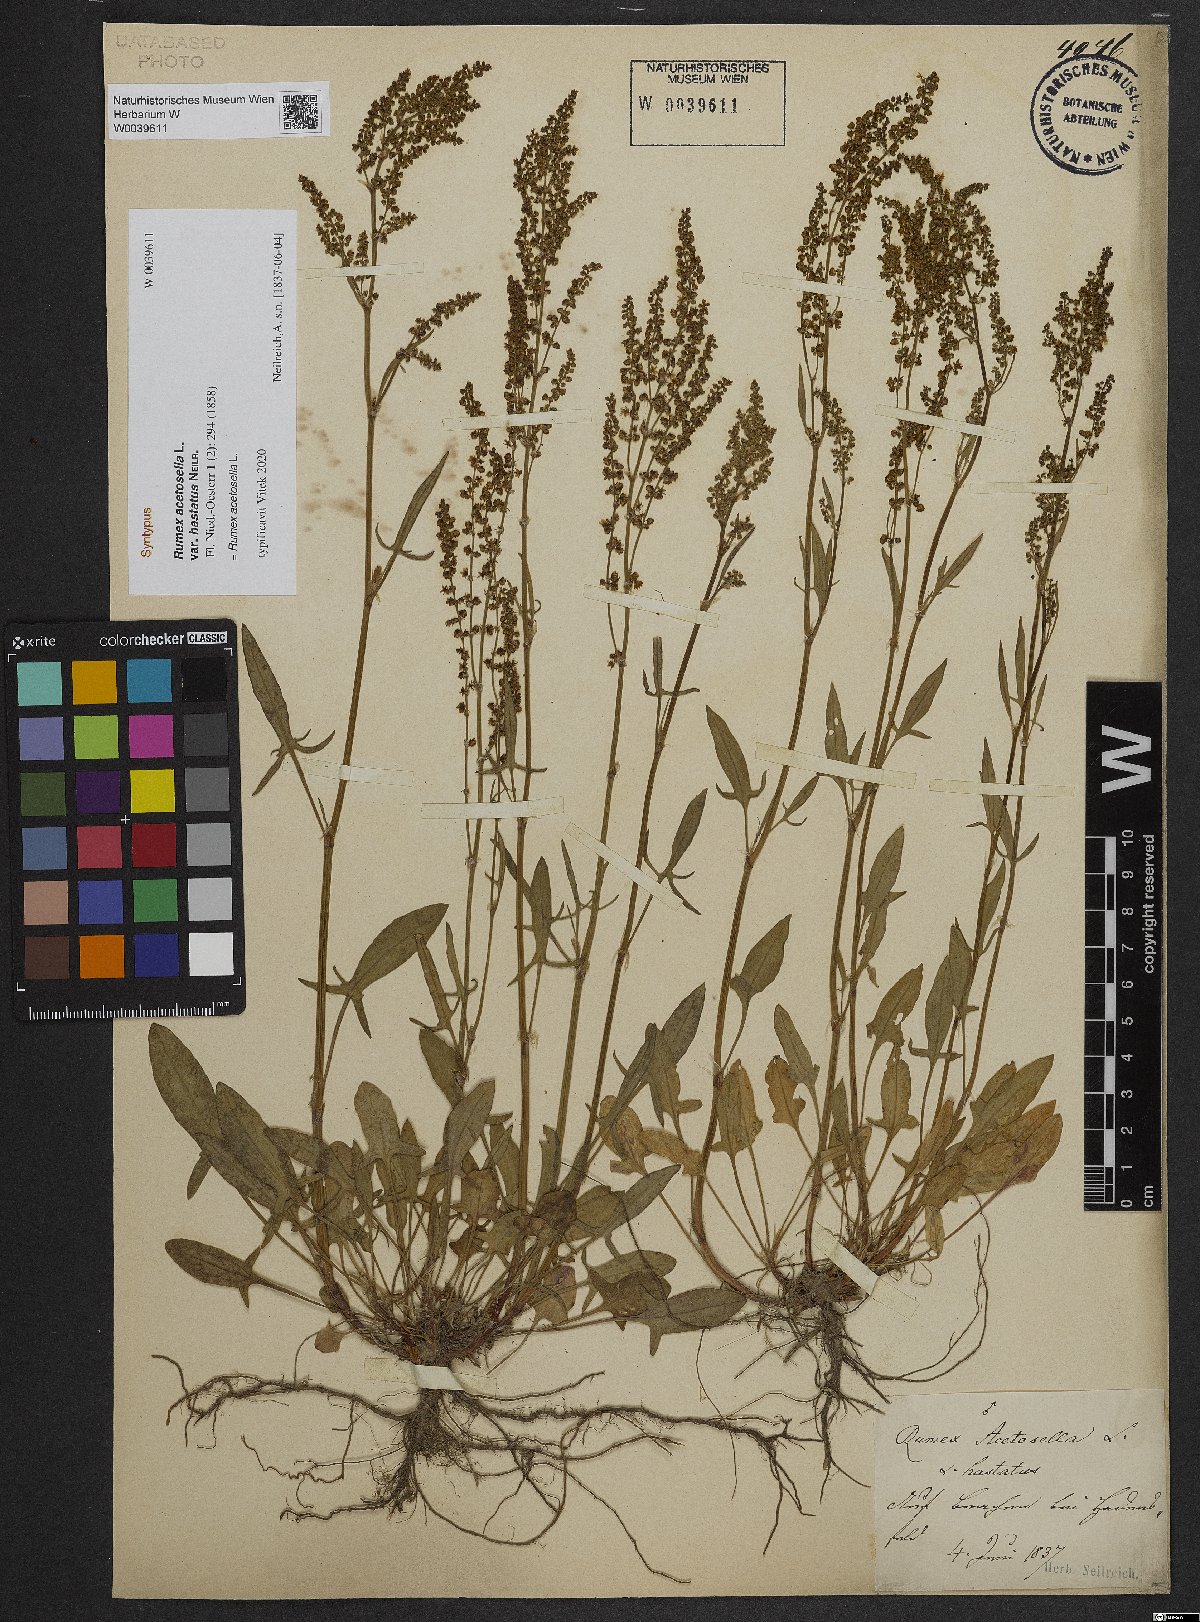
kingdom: Plantae
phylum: Tracheophyta
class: Magnoliopsida
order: Caryophyllales
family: Polygonaceae
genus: Rumex
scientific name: Rumex acetosella
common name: Common sheep sorrel
